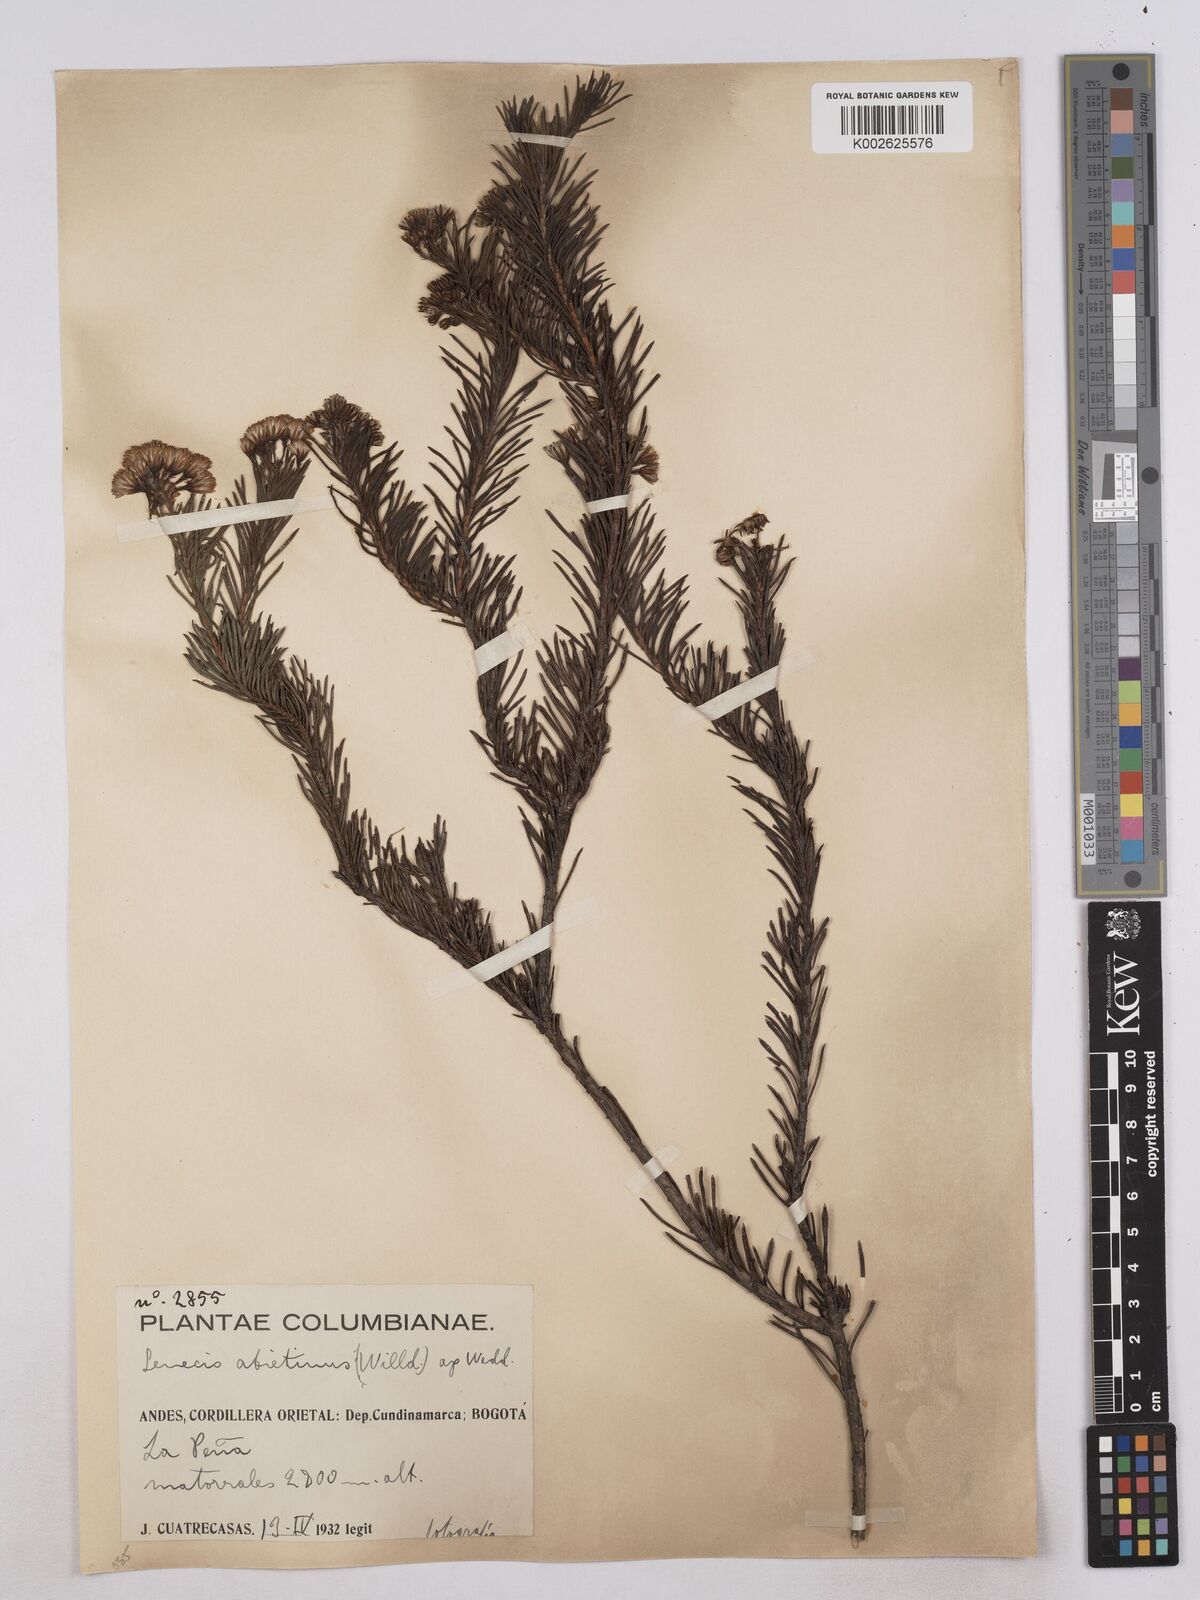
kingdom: Plantae
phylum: Tracheophyta
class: Magnoliopsida
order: Asterales
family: Asteraceae
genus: Monticalia
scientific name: Monticalia abietina
